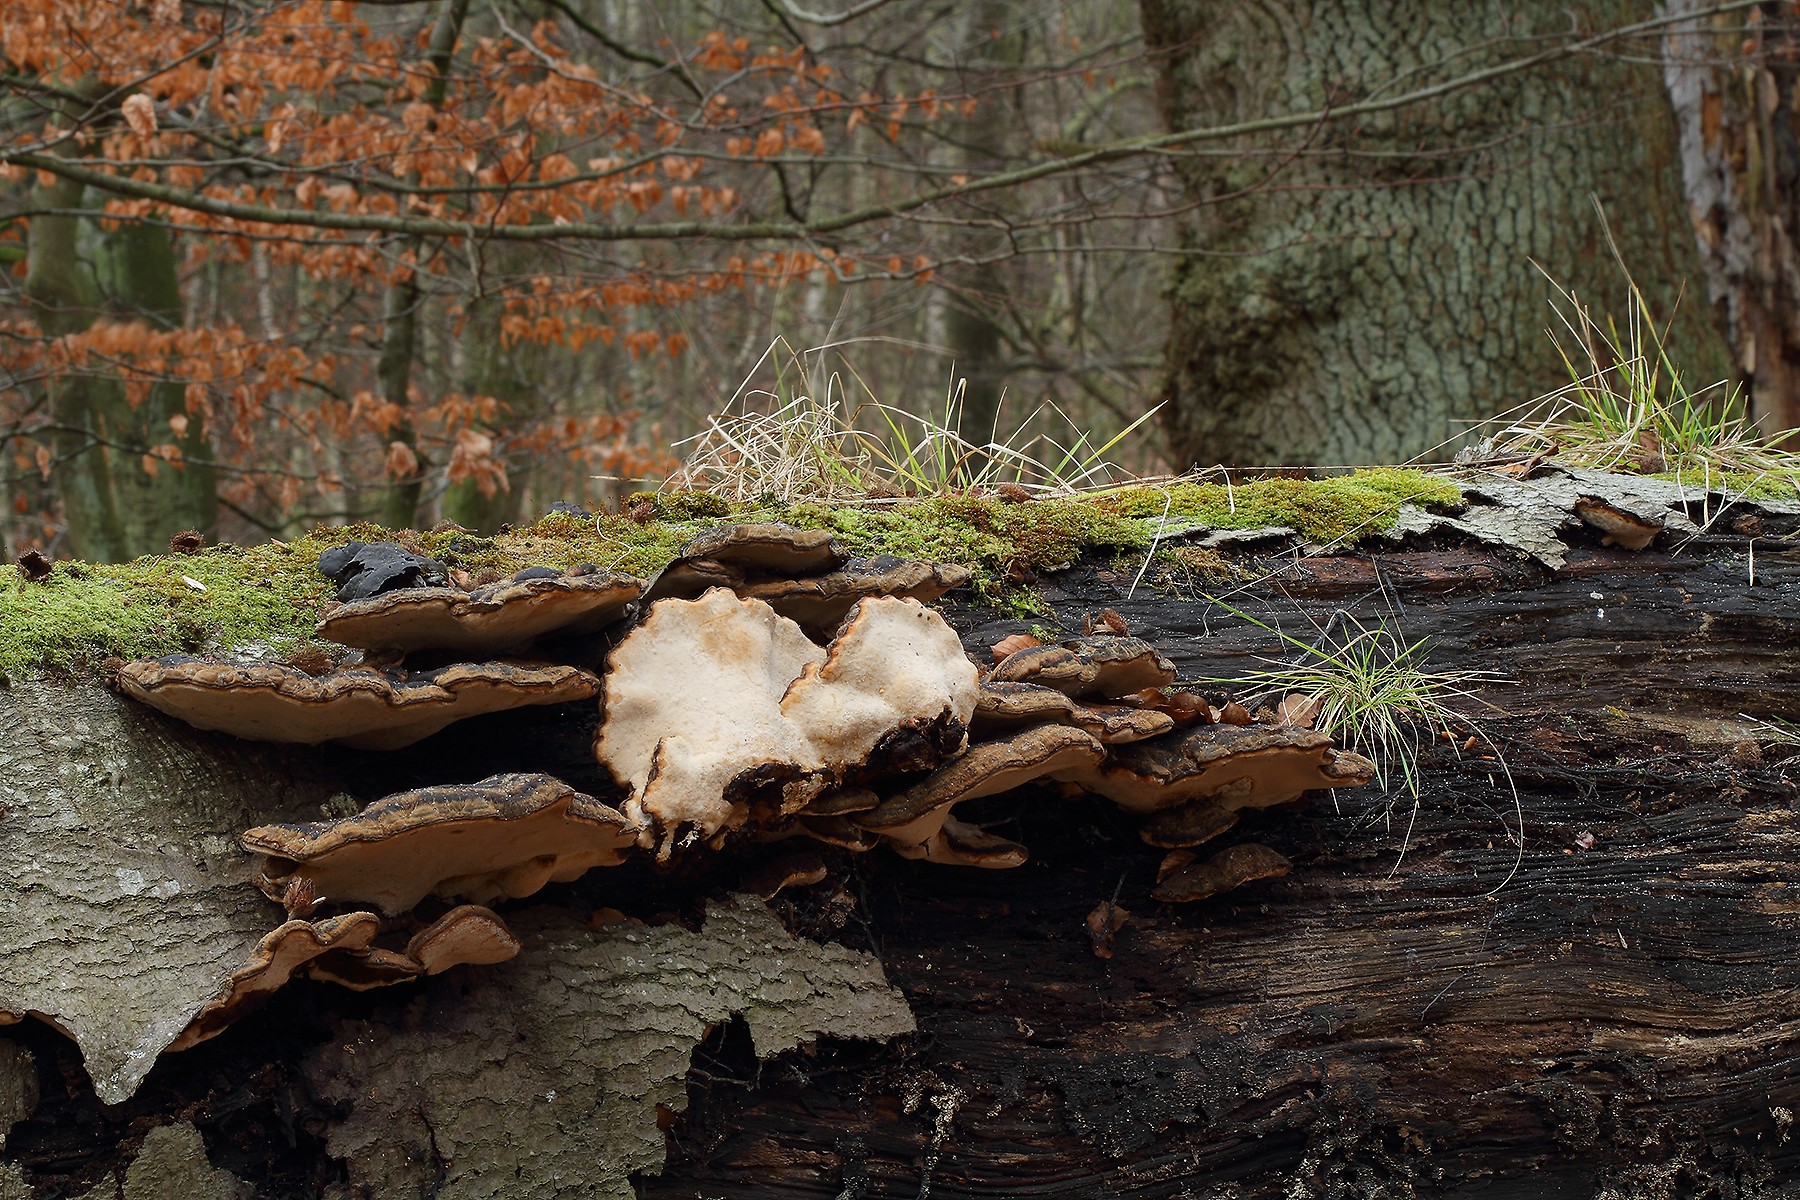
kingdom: Fungi
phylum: Basidiomycota
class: Agaricomycetes
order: Polyporales
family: Ischnodermataceae
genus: Ischnoderma
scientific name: Ischnoderma resinosum
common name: løv-tjæreporesvamp
